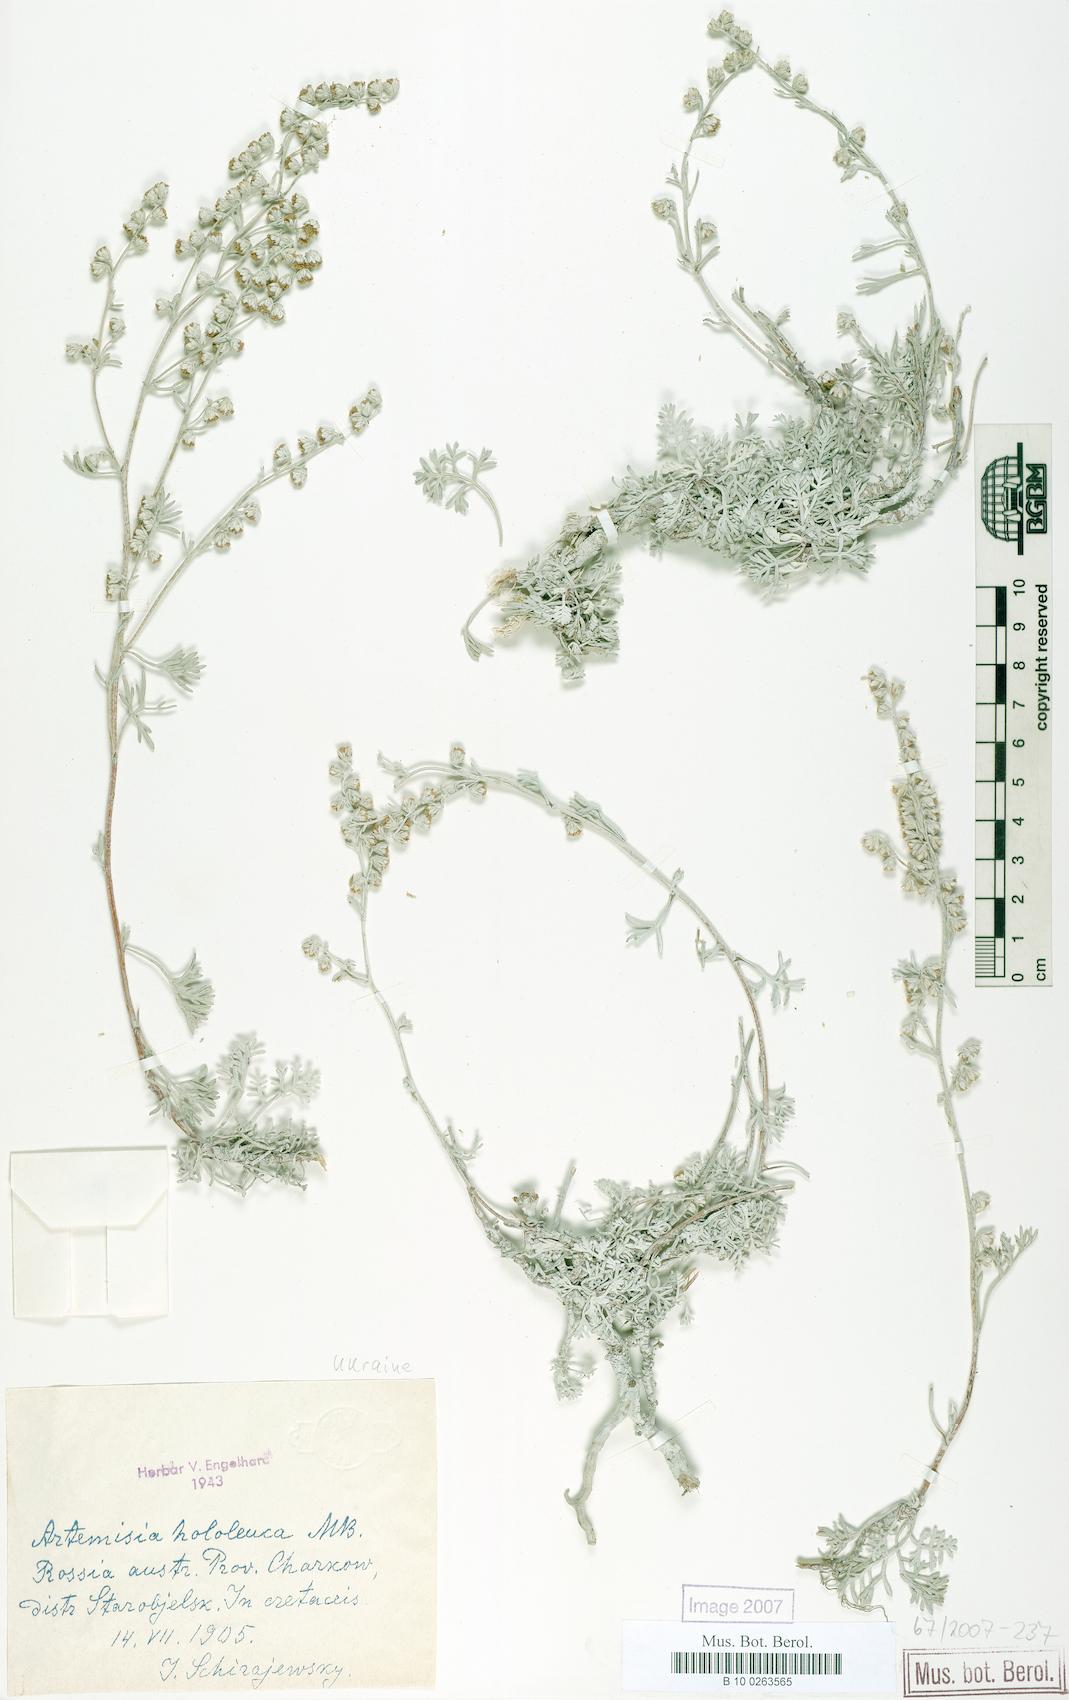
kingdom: Plantae
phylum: Tracheophyta
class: Magnoliopsida
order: Asterales
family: Asteraceae
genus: Artemisia
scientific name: Artemisia hololeuca
